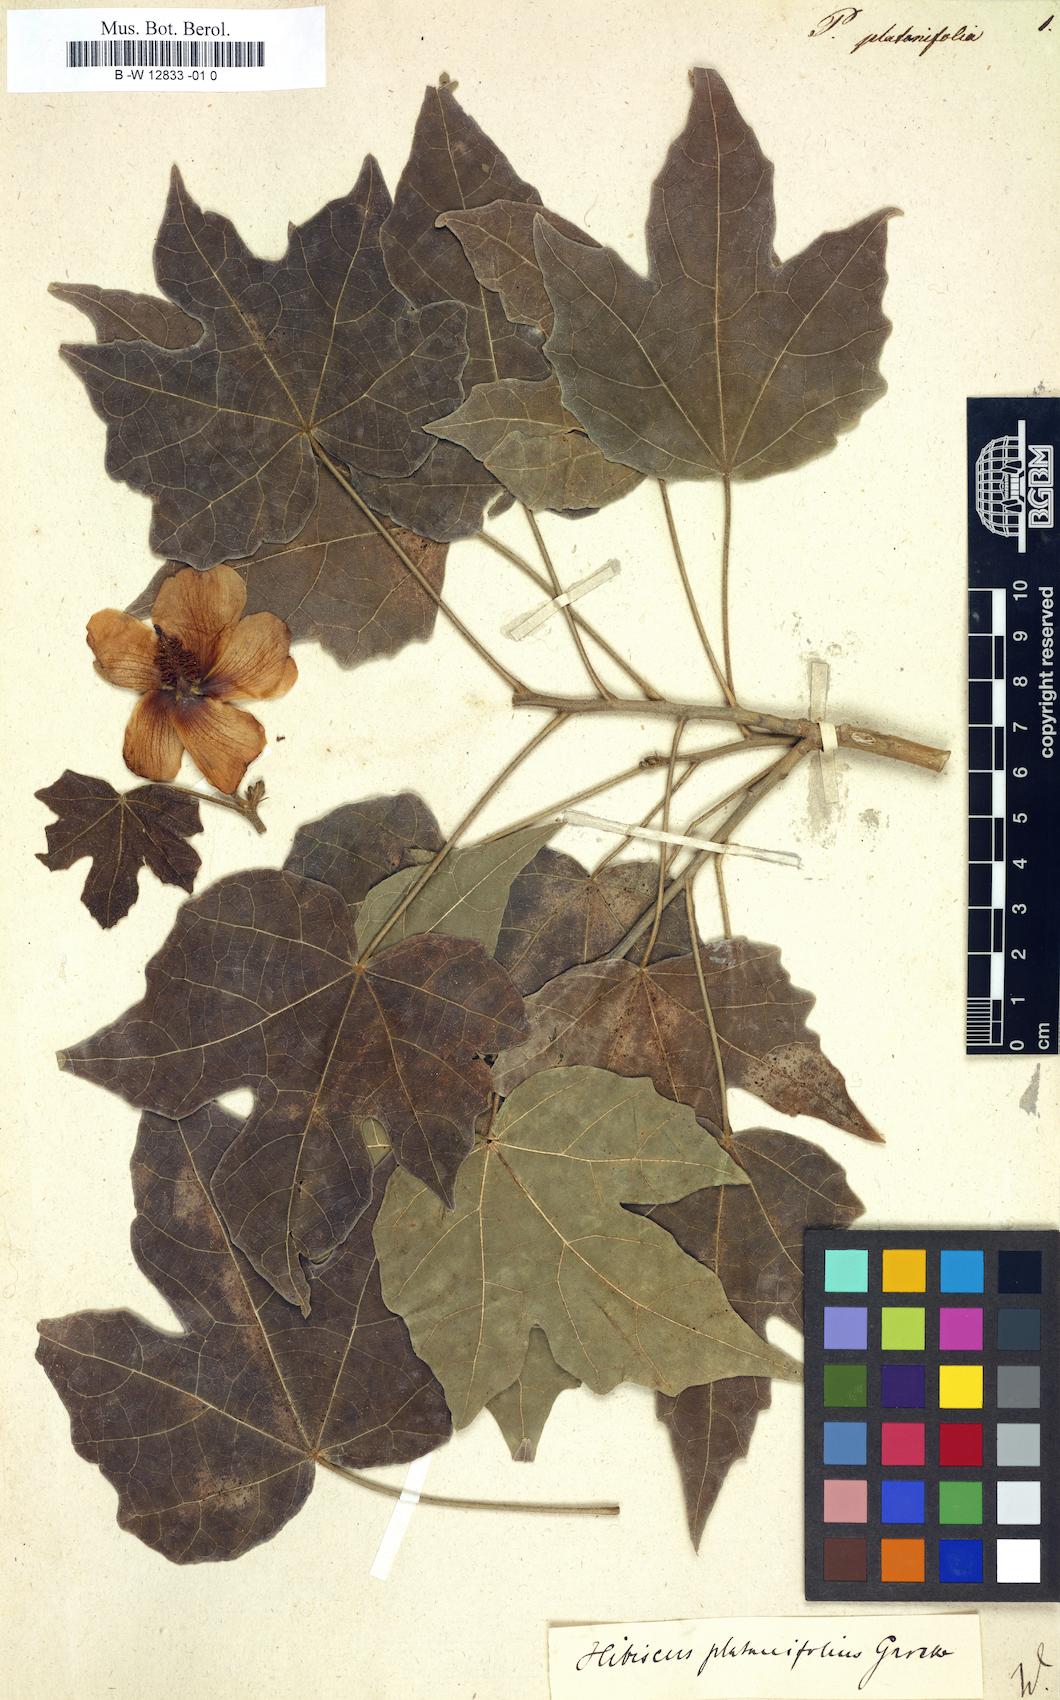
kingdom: Plantae
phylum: Tracheophyta
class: Magnoliopsida
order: Malvales
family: Malvaceae
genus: Hibiscus
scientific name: Hibiscus platanifolius
